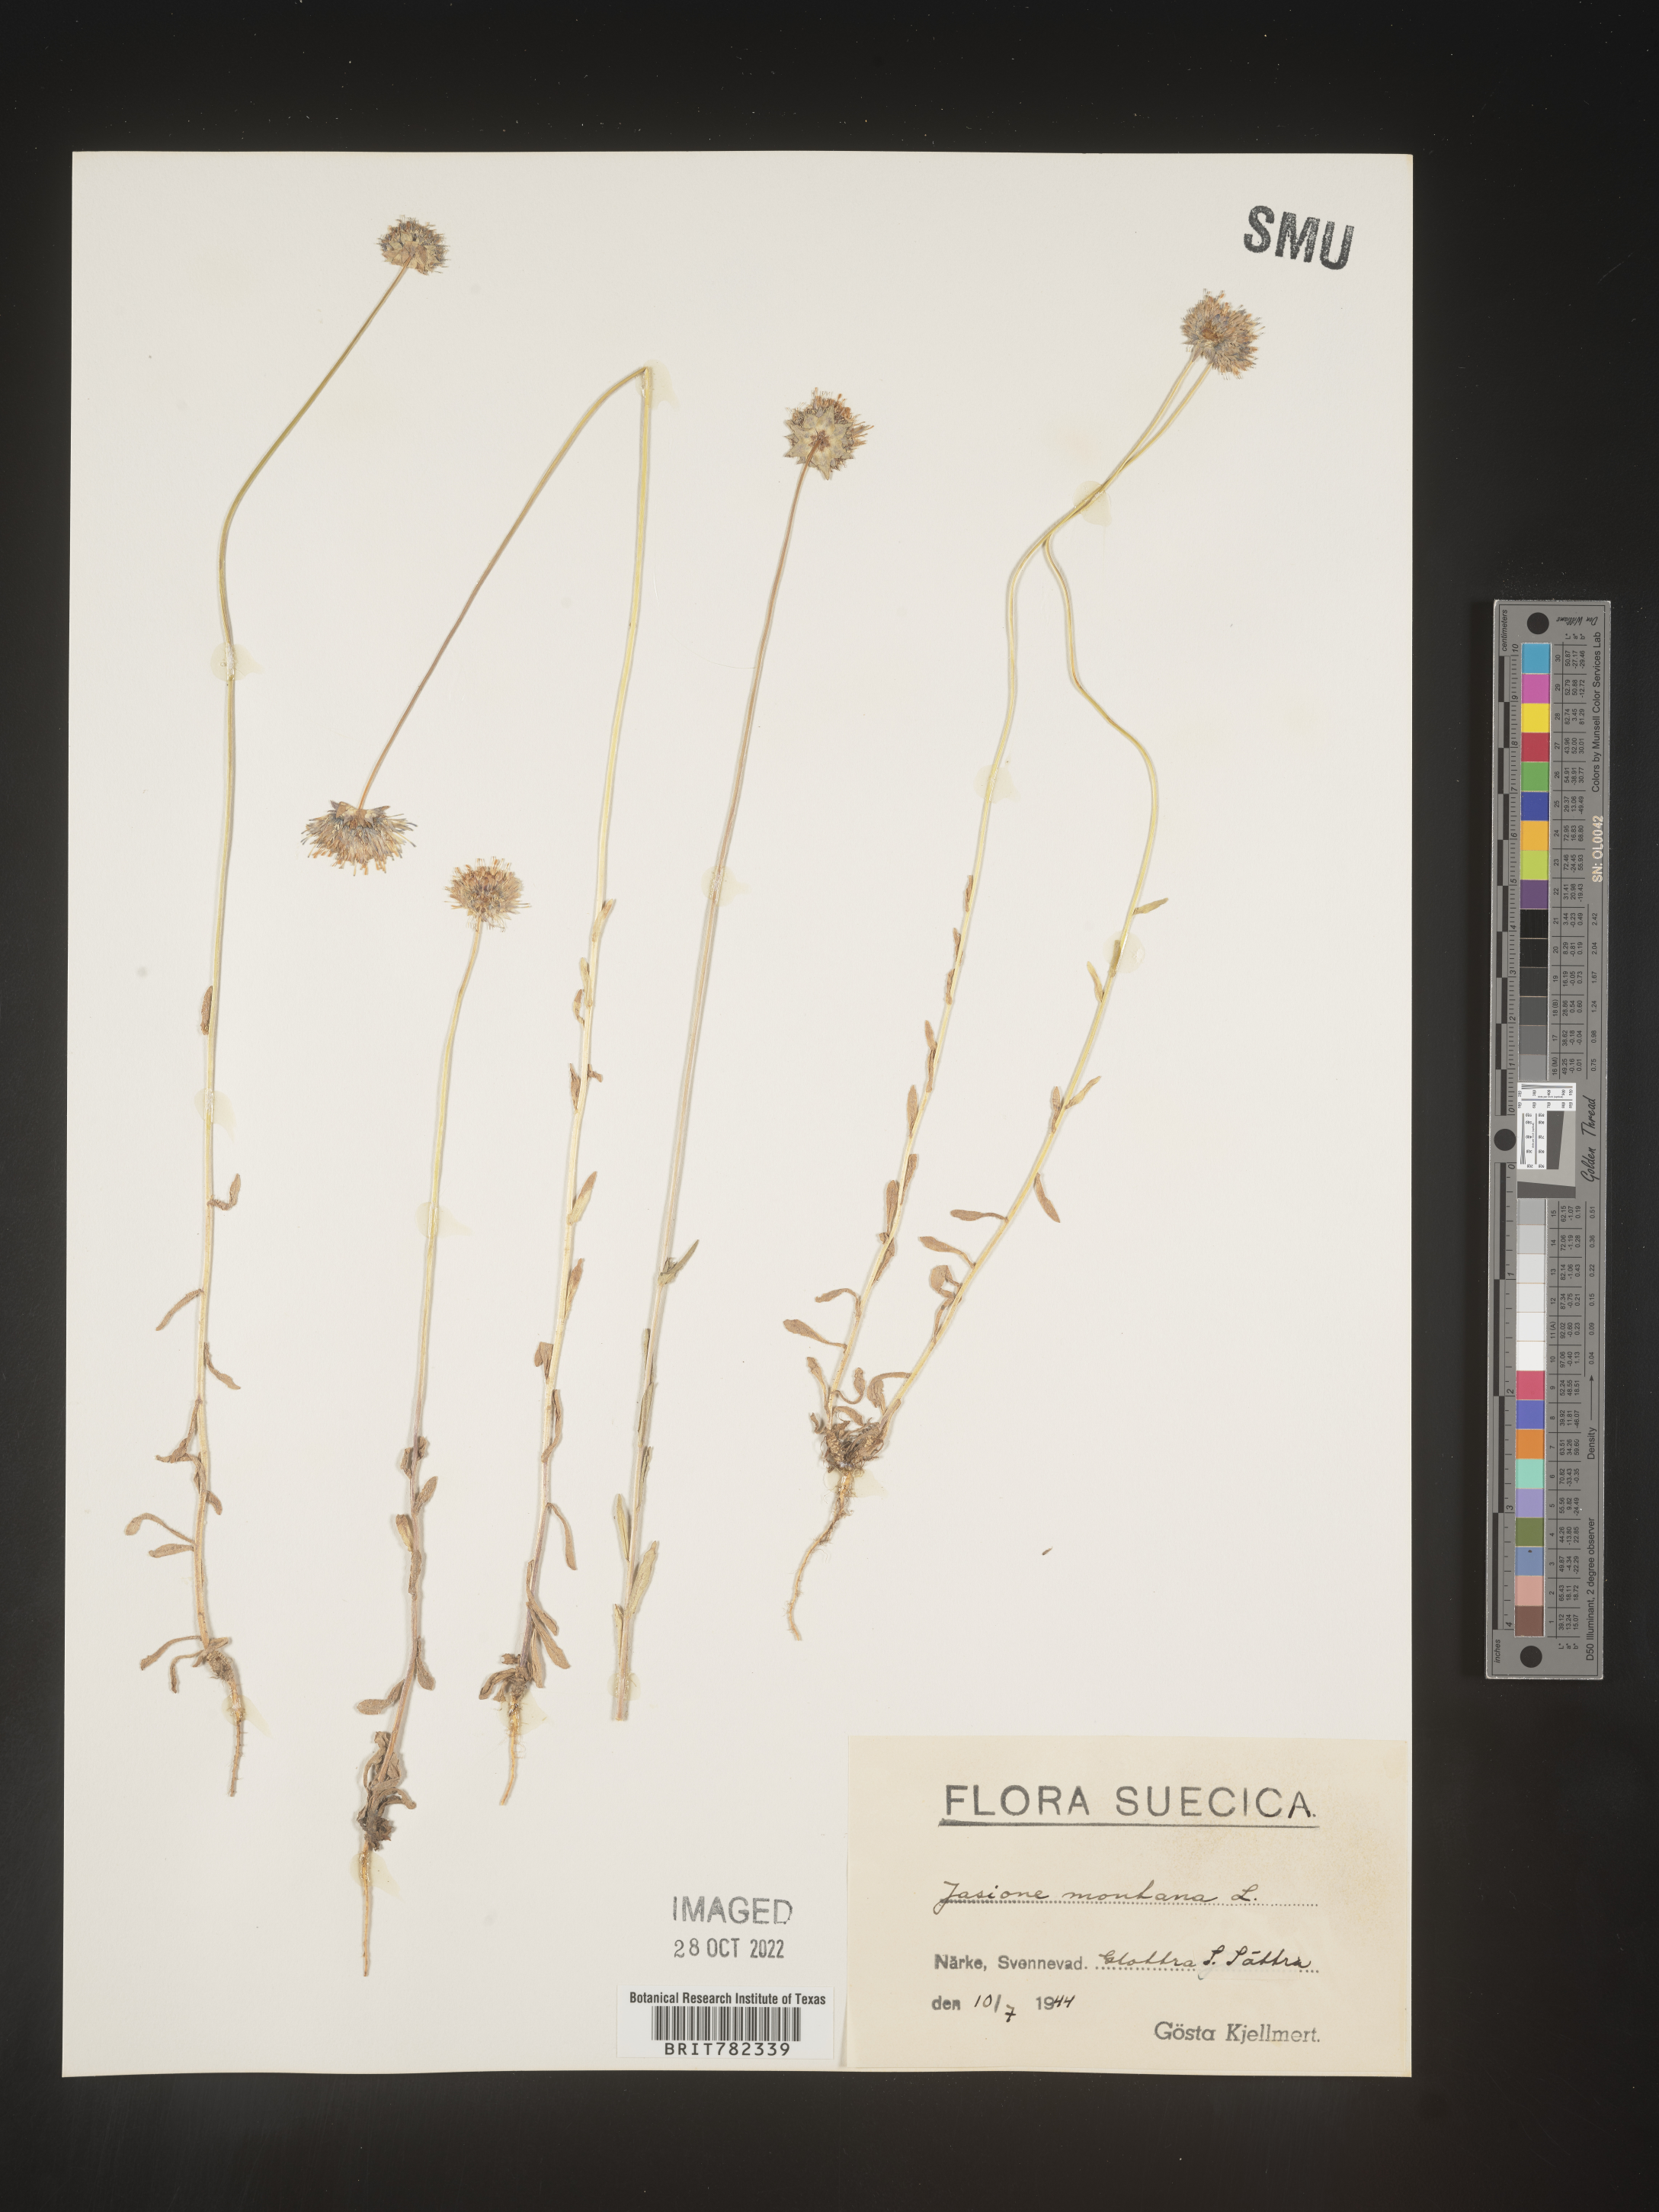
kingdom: Plantae
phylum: Tracheophyta
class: Magnoliopsida
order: Asterales
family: Campanulaceae
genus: Jasione
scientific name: Jasione
